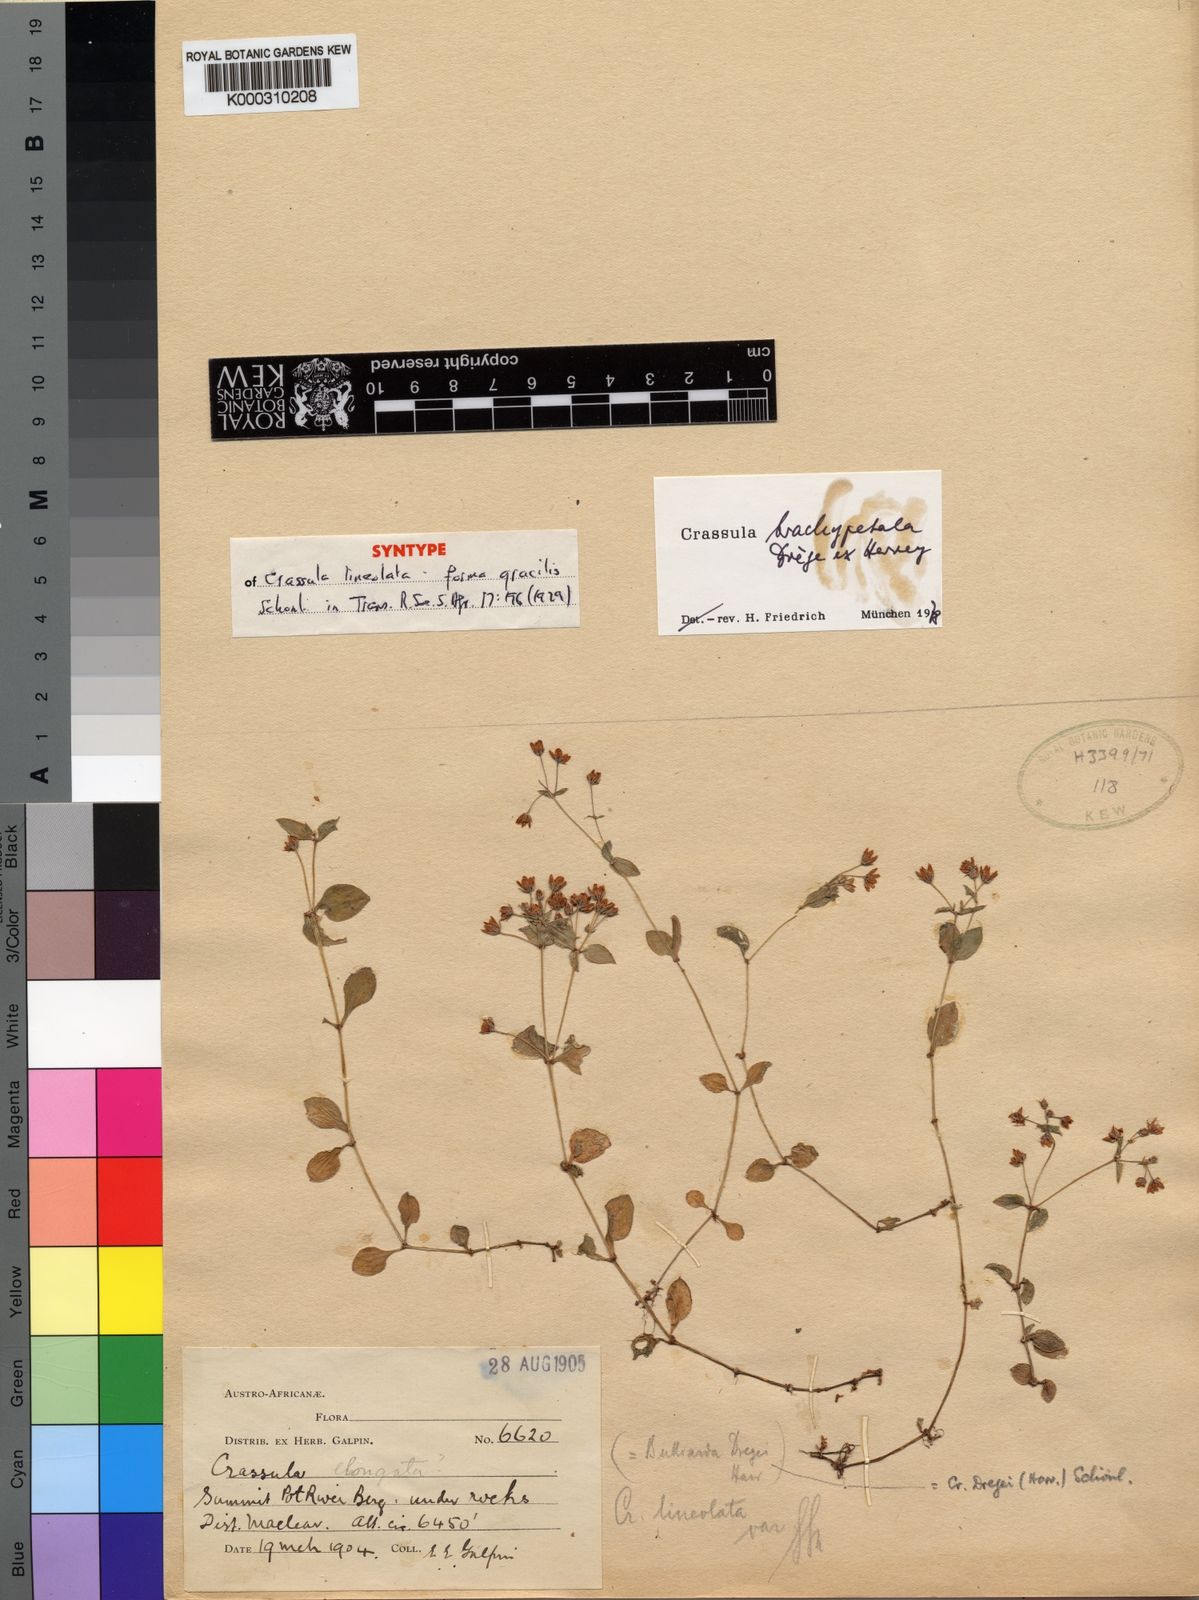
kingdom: Plantae
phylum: Tracheophyta
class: Magnoliopsida
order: Saxifragales
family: Crassulaceae
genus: Crassula
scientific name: Crassula pellucida
